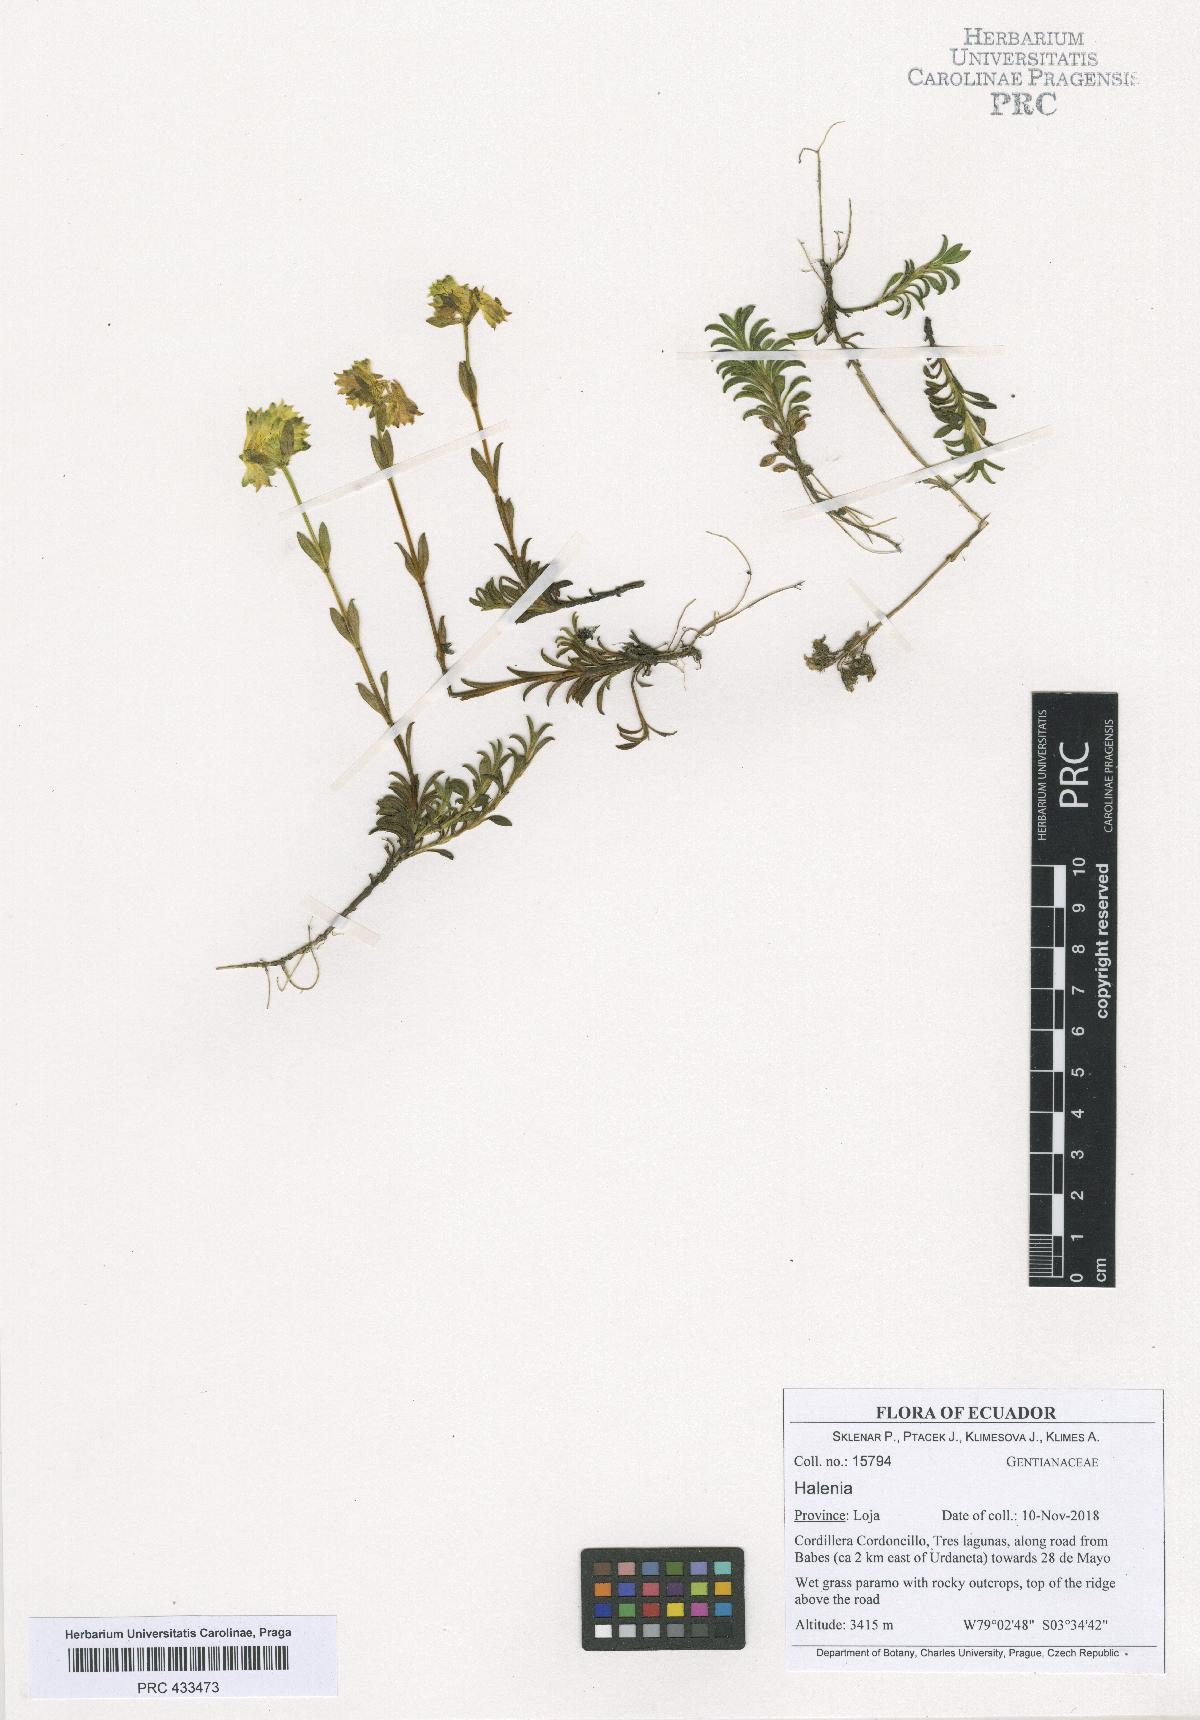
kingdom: Plantae
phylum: Tracheophyta
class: Magnoliopsida
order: Gentianales
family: Gentianaceae
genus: Halenia
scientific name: Halenia
